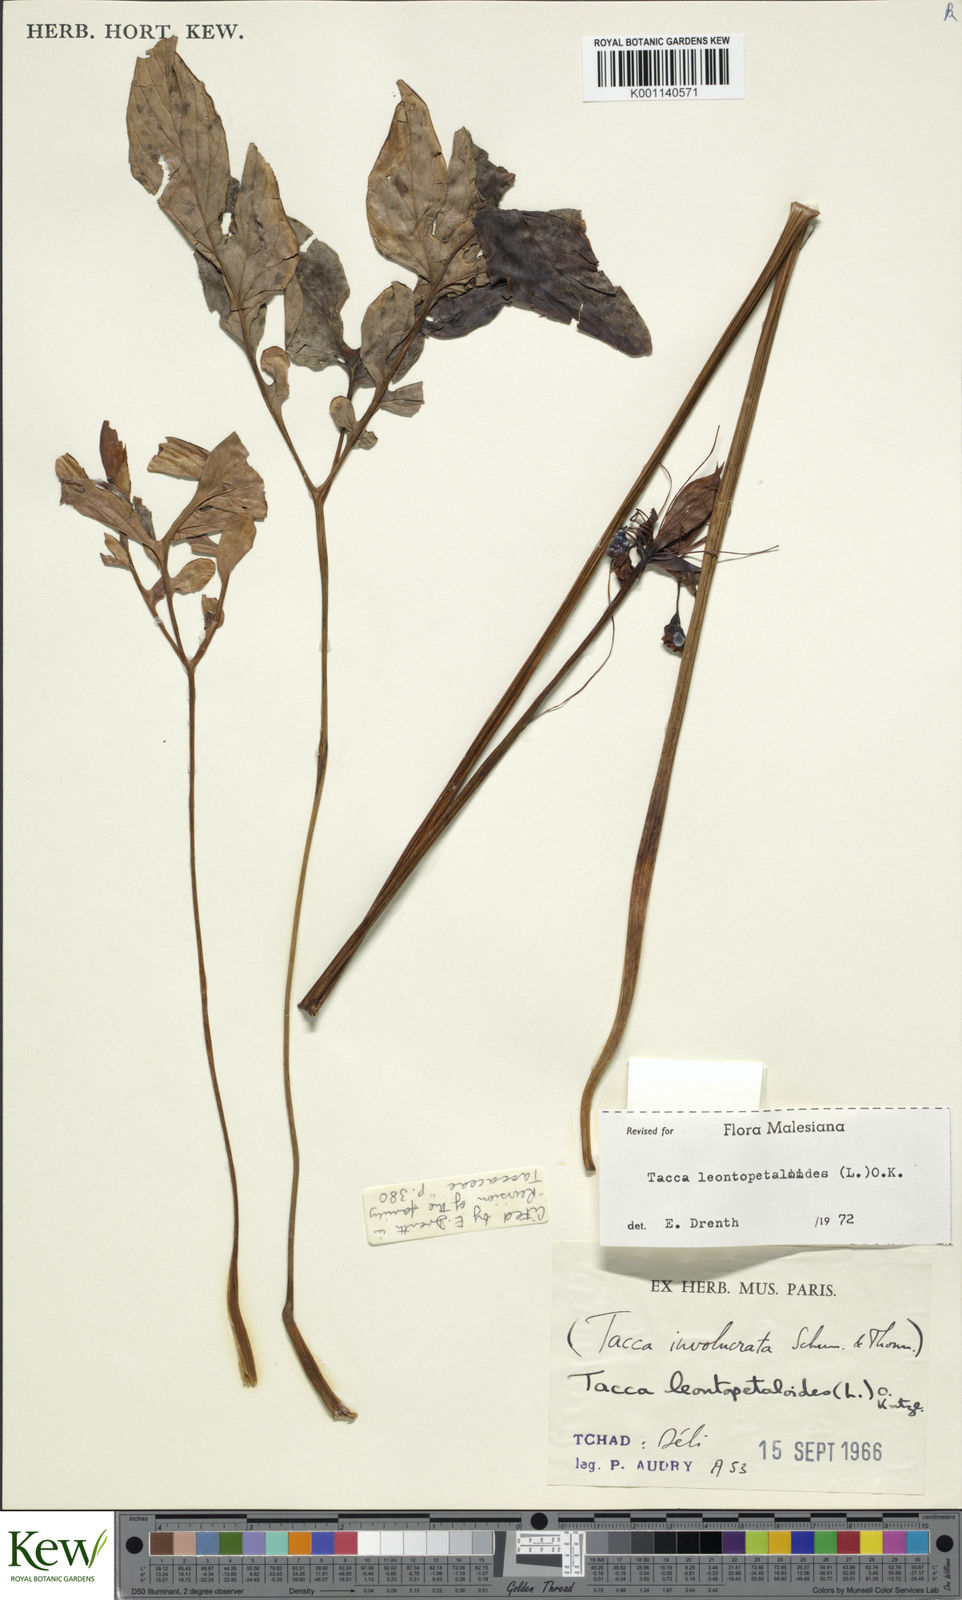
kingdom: Plantae
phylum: Tracheophyta
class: Liliopsida
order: Dioscoreales
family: Dioscoreaceae
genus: Tacca
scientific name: Tacca leontopetaloides
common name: Arrowroot
